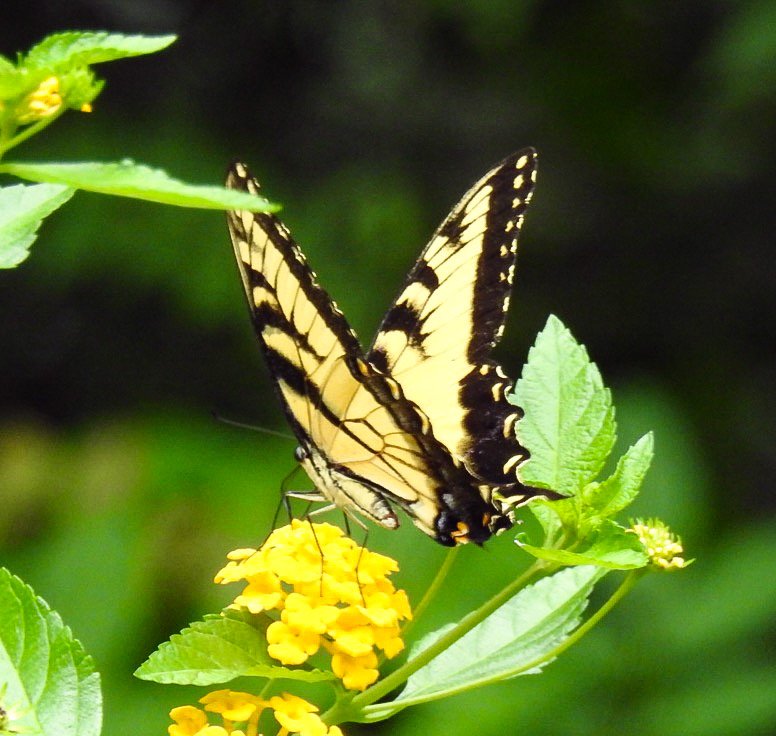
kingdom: Animalia
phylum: Arthropoda
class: Insecta
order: Lepidoptera
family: Papilionidae
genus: Pterourus
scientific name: Pterourus glaucus
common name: Eastern Tiger Swallowtail
